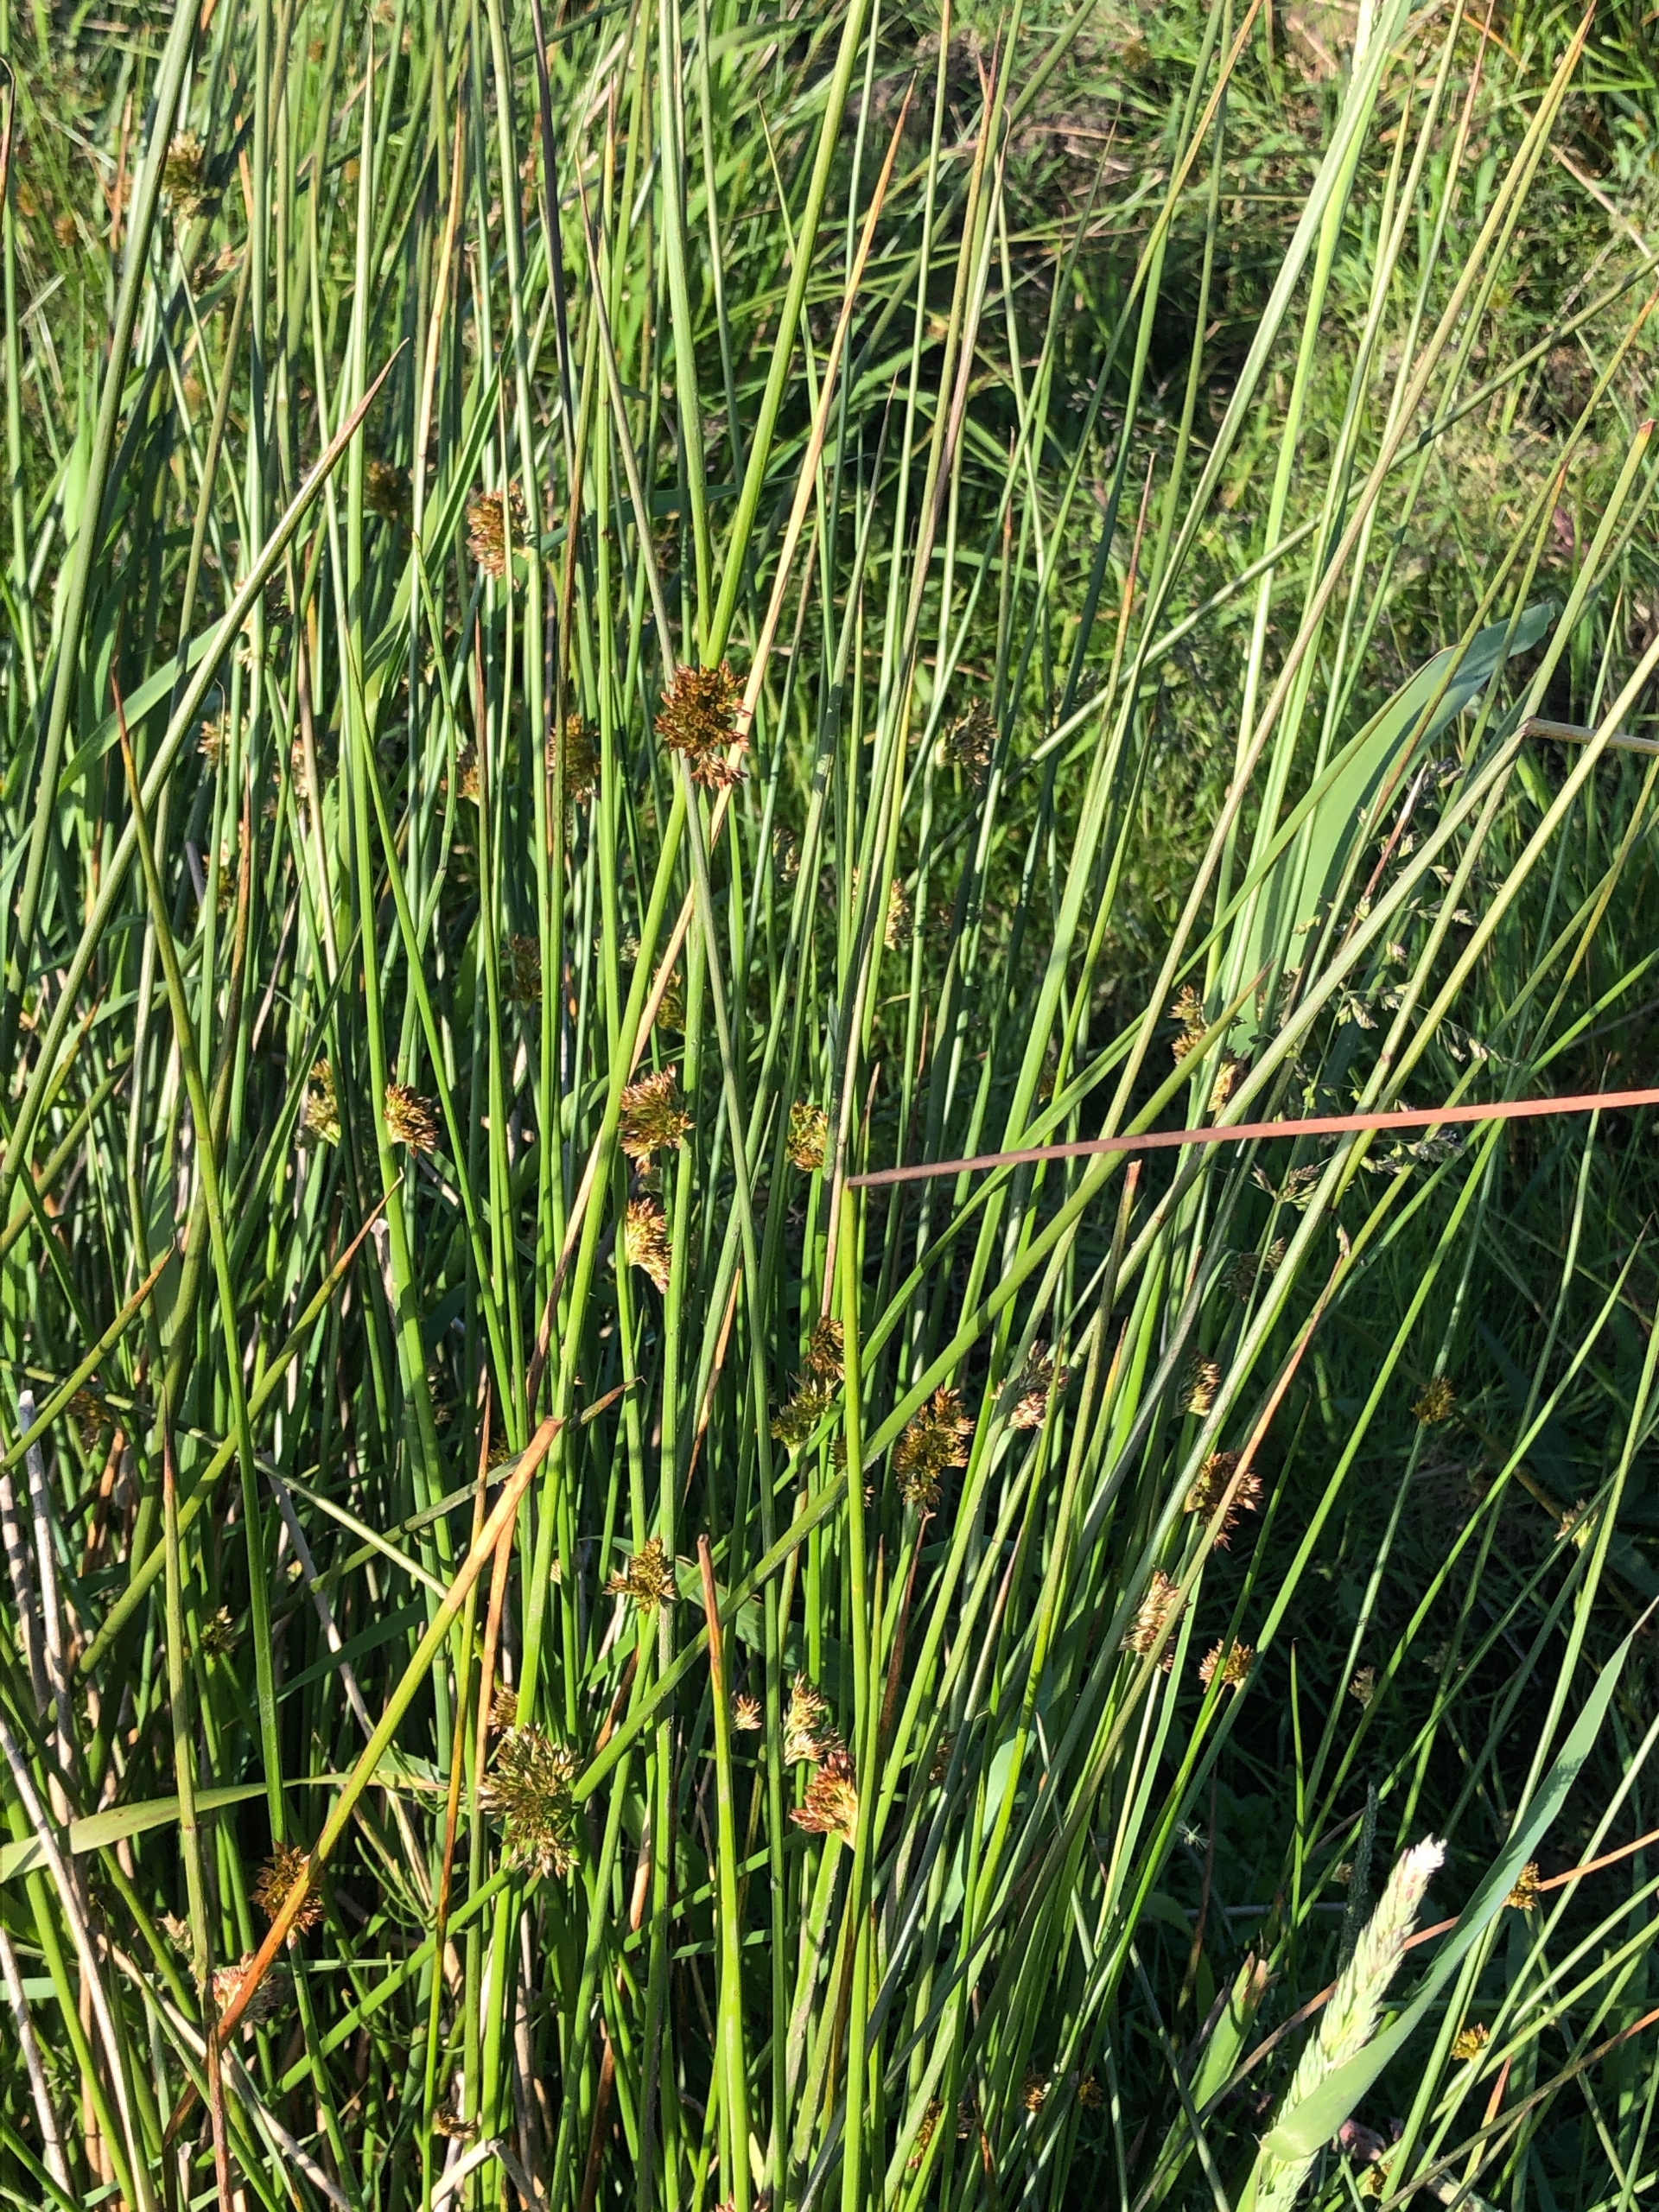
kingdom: Plantae
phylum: Tracheophyta
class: Liliopsida
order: Poales
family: Juncaceae
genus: Juncus
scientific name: Juncus effusus
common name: Lyse-siv
